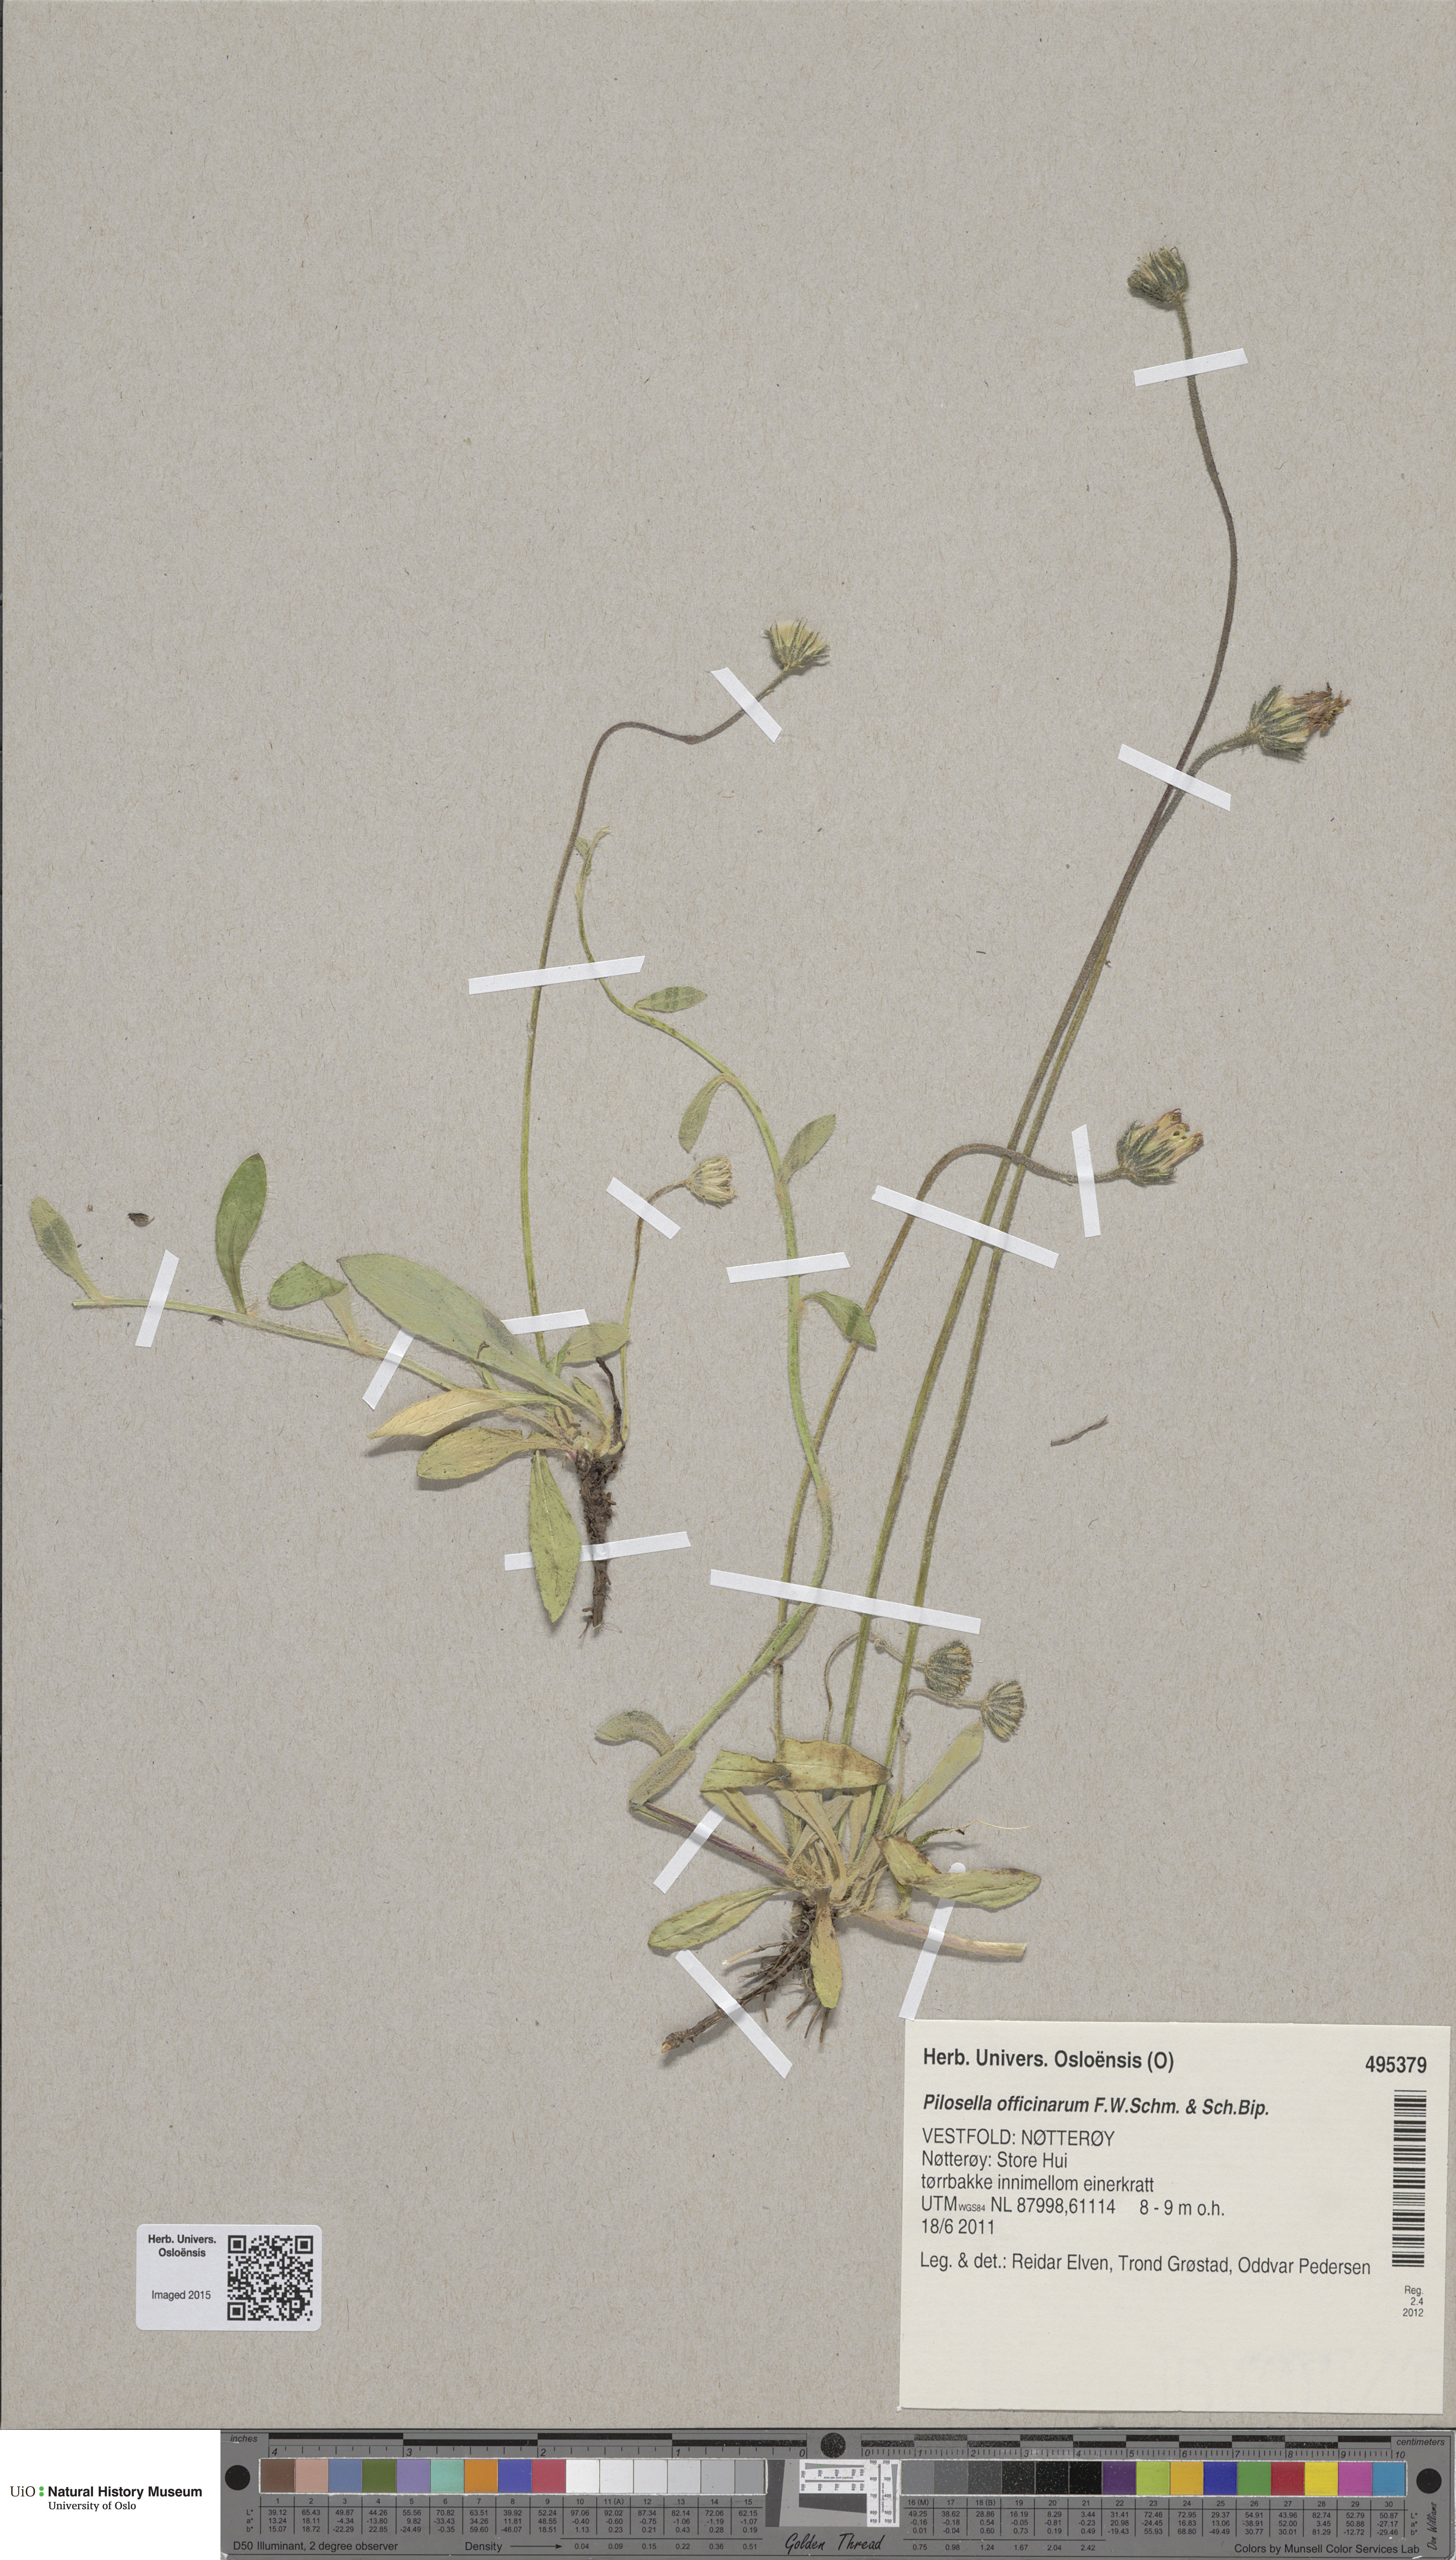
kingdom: Plantae
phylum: Tracheophyta
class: Magnoliopsida
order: Asterales
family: Asteraceae
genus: Pilosella
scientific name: Pilosella officinarum
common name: Mouse-ear hawkweed
